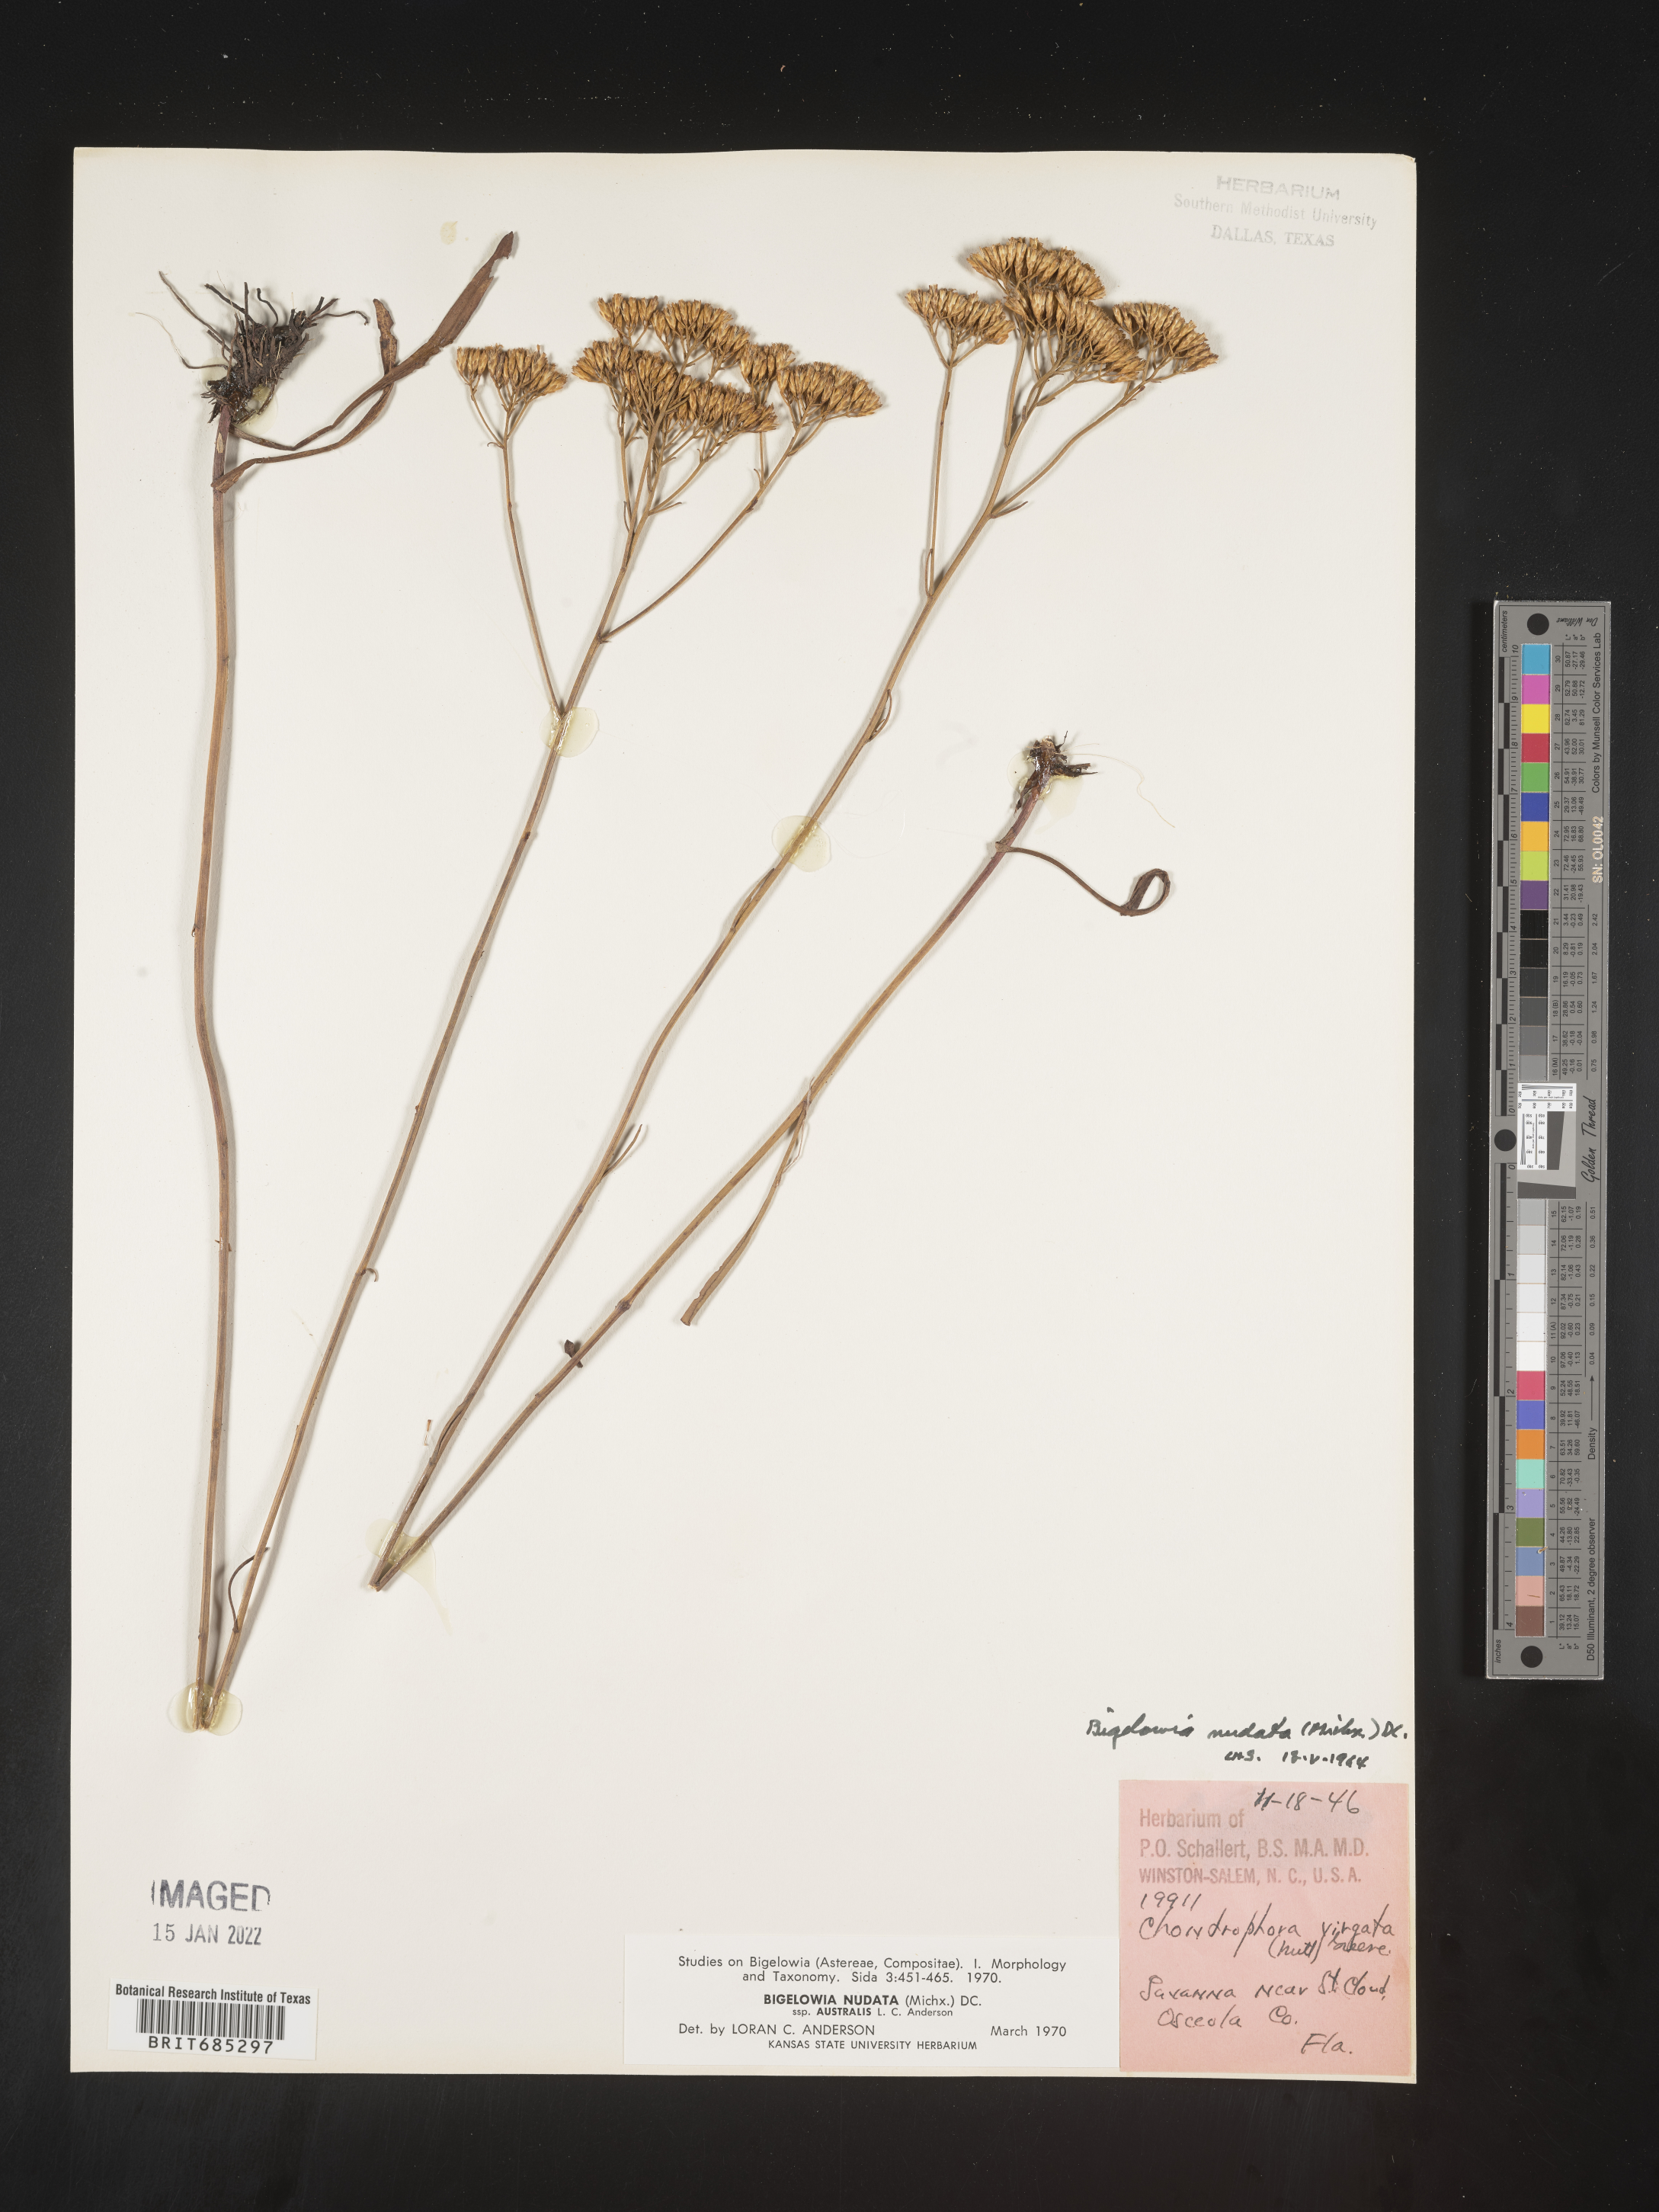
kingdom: Plantae
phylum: Tracheophyta
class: Magnoliopsida
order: Asterales
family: Asteraceae
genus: Bigelowia
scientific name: Bigelowia nudata
